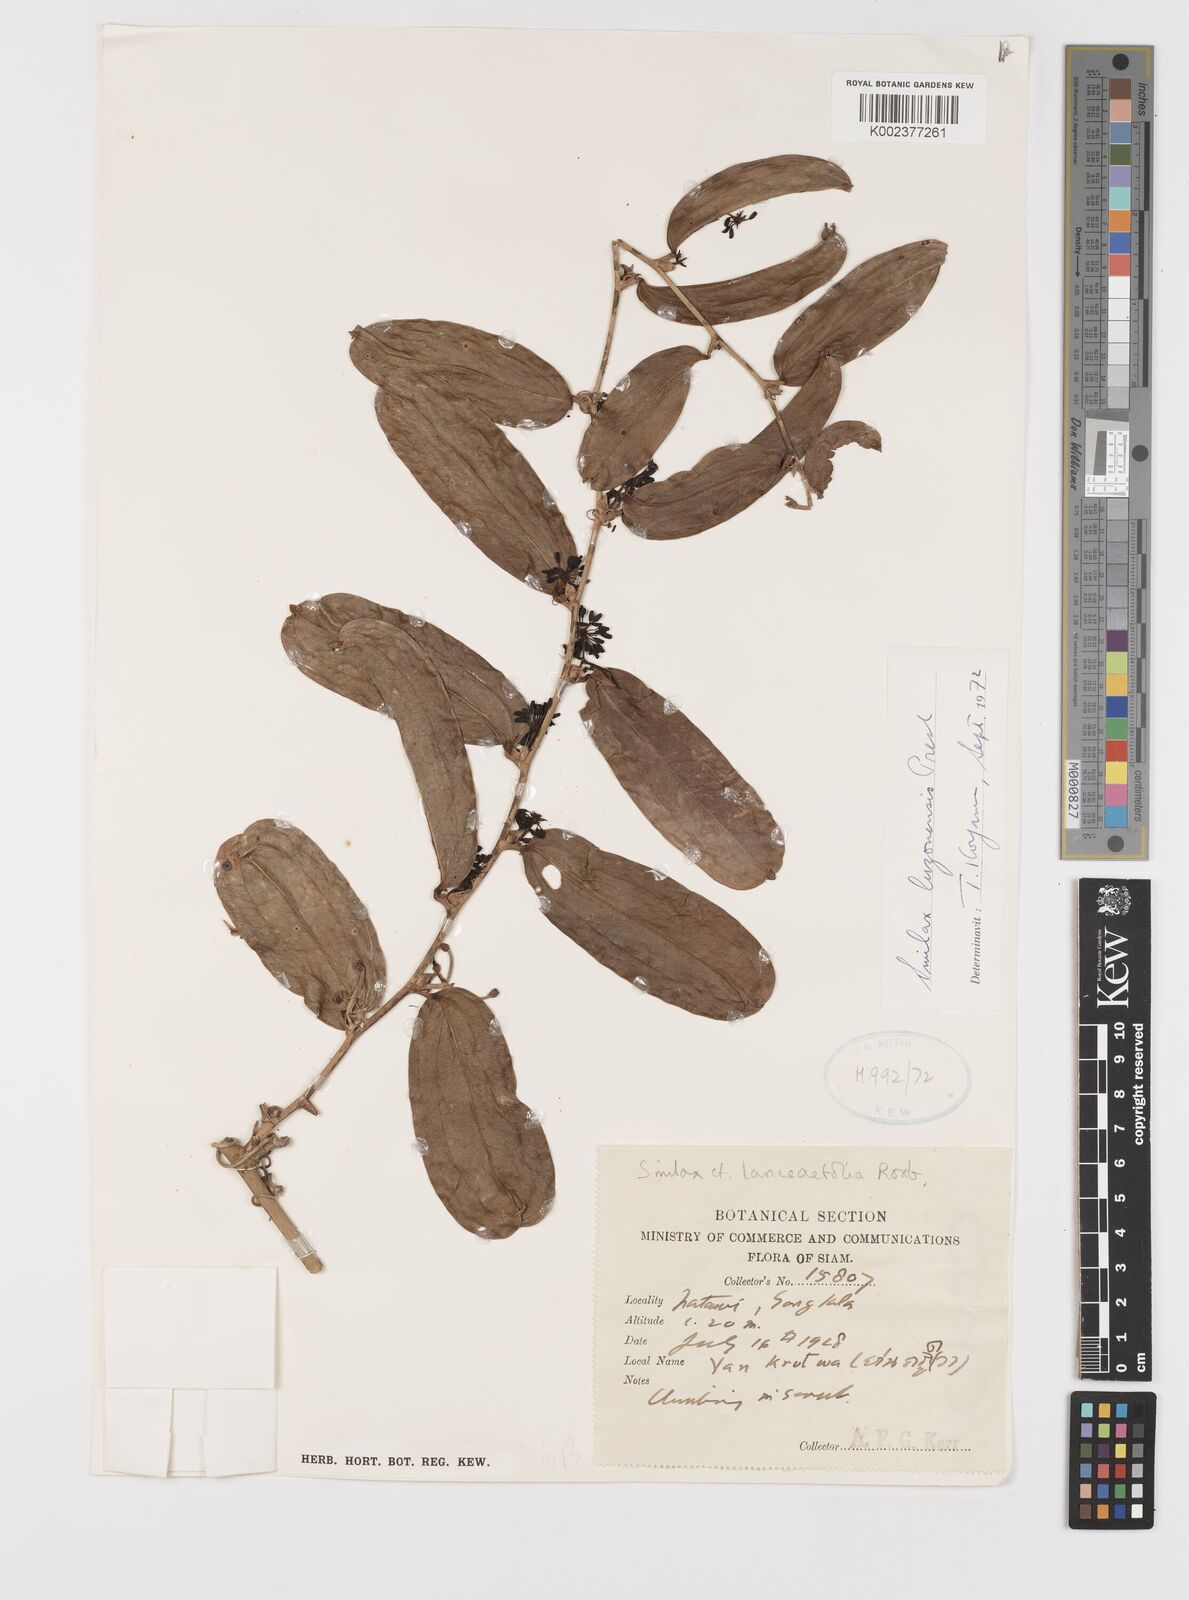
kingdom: Plantae
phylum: Tracheophyta
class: Liliopsida
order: Liliales
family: Smilacaceae
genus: Smilax
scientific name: Smilax luzonensis
